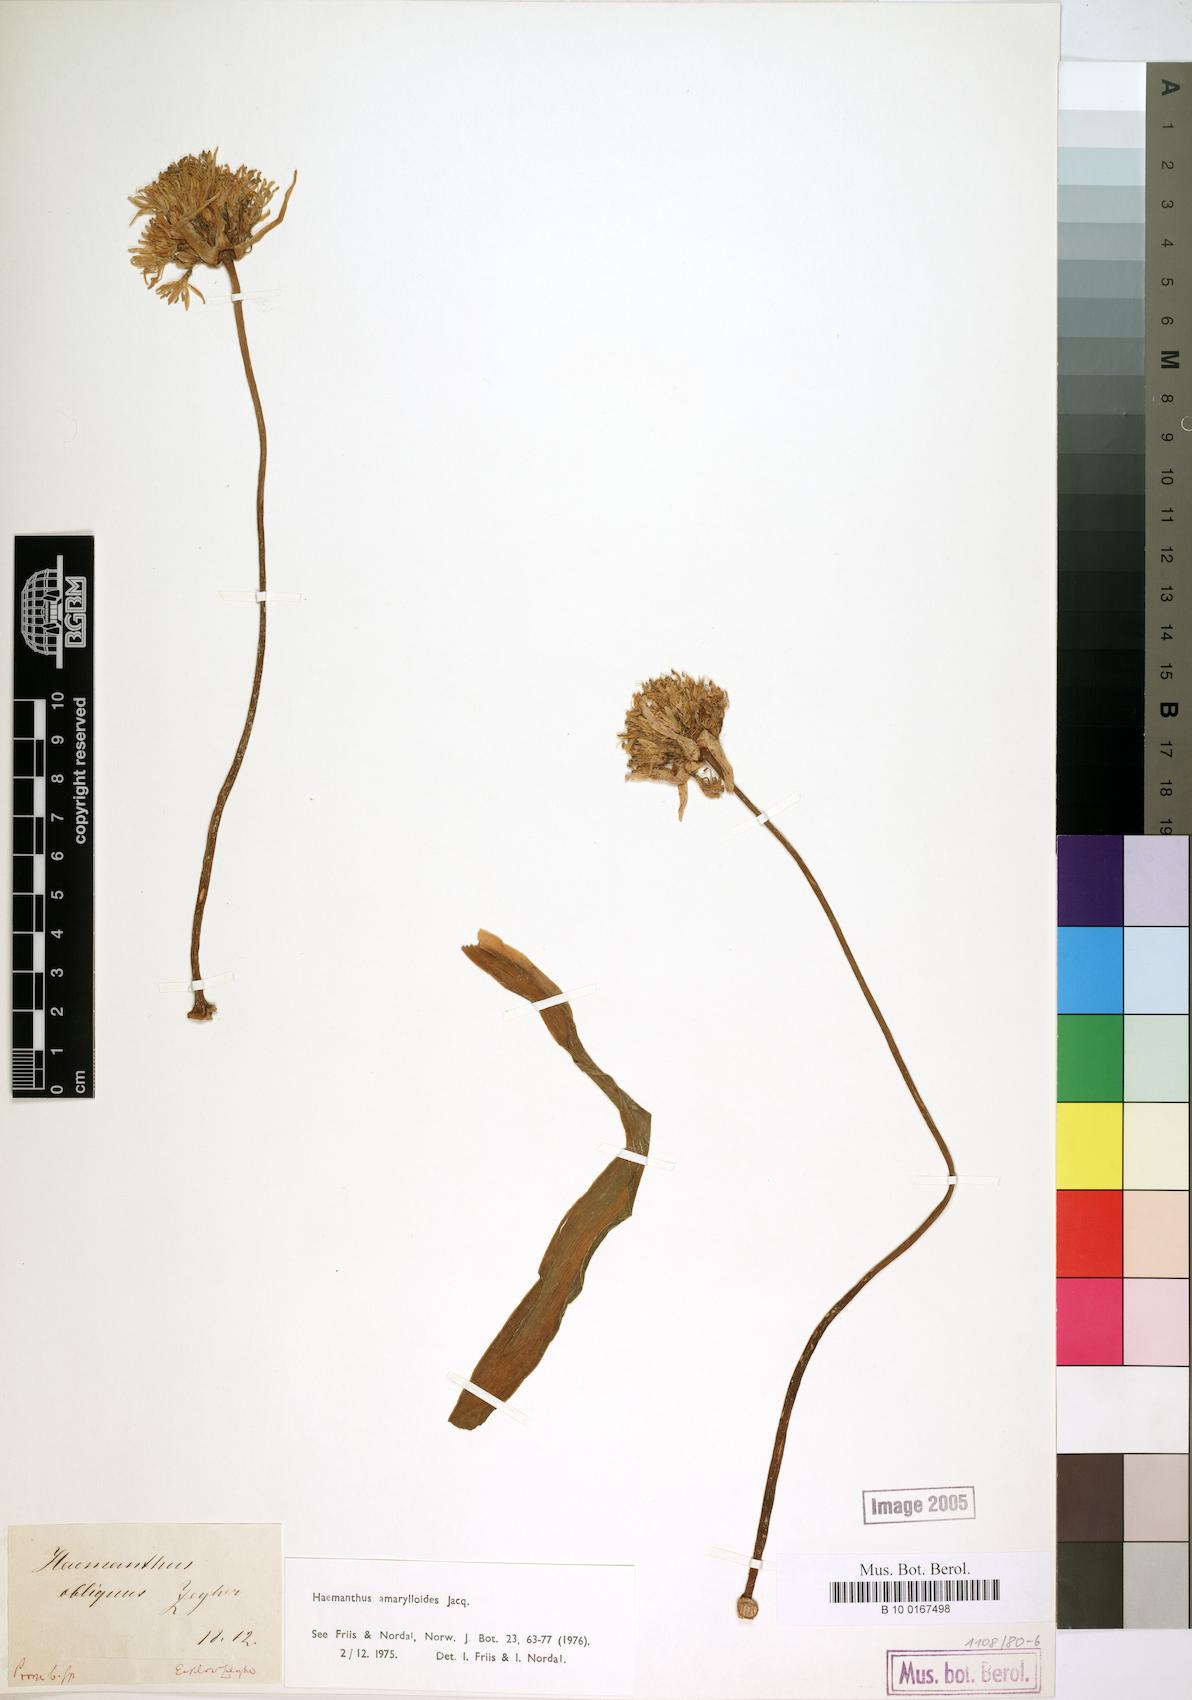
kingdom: Plantae
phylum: Tracheophyta
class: Liliopsida
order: Asparagales
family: Amaryllidaceae
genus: Haemanthus
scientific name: Haemanthus amarylloides
